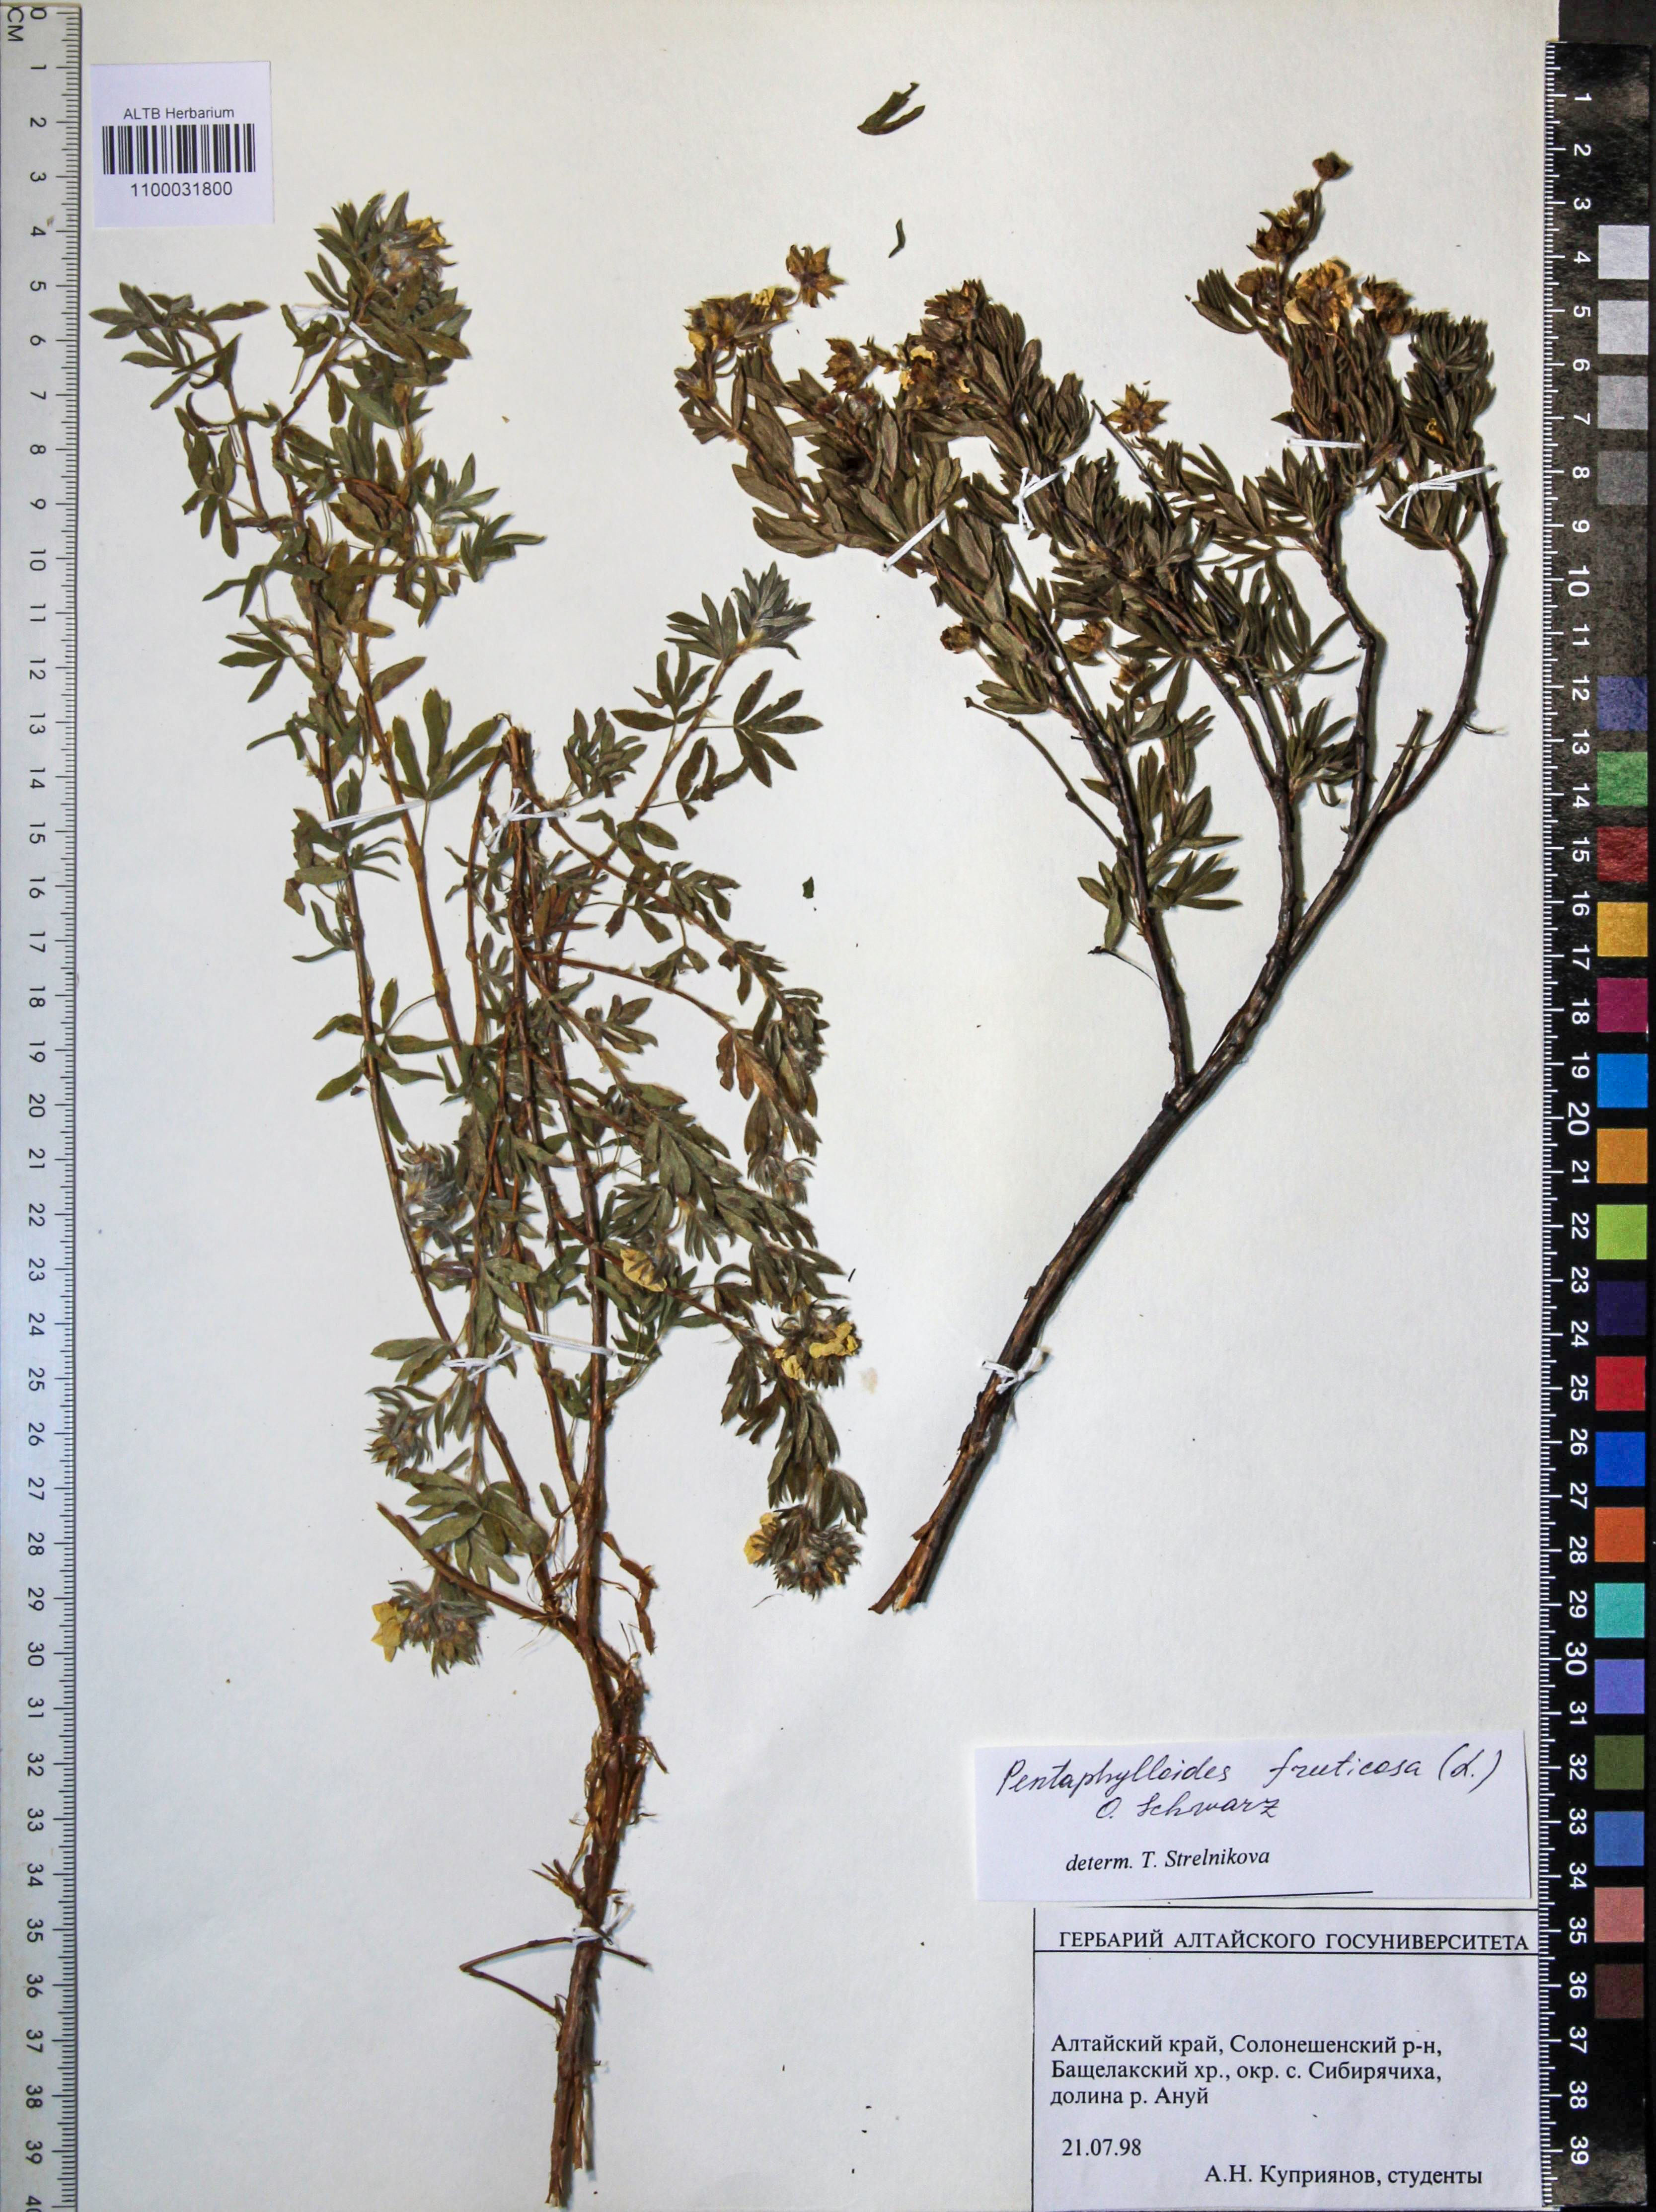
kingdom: Plantae
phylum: Tracheophyta
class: Magnoliopsida
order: Rosales
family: Rosaceae
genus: Dasiphora
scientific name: Dasiphora fruticosa
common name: Shrubby cinquefoil
